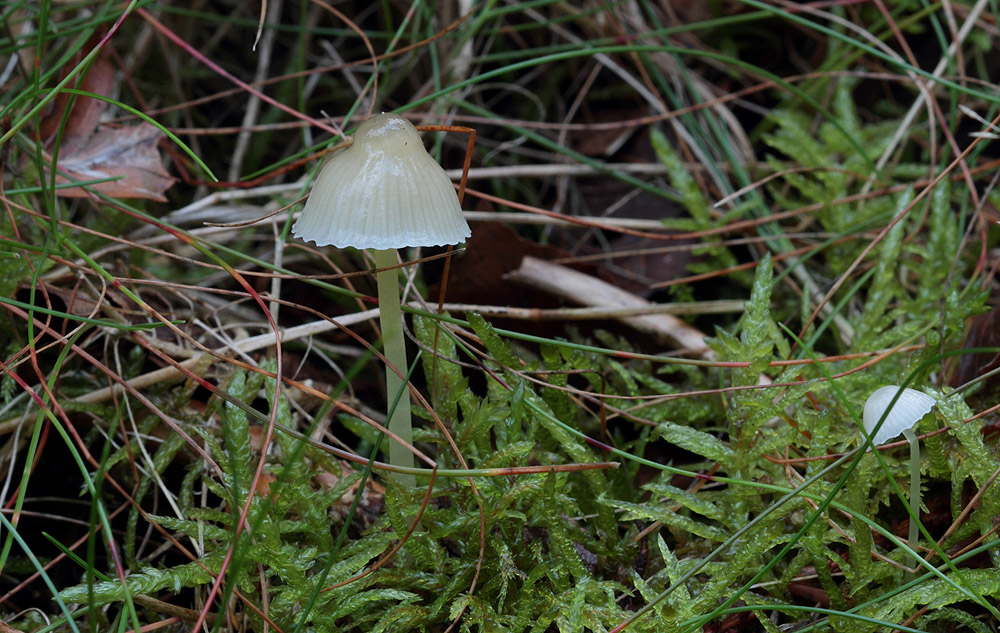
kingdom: Fungi
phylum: Basidiomycota
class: Agaricomycetes
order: Agaricales
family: Mycenaceae
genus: Mycena
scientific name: Mycena epipterygia
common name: gulstokket huesvamp
